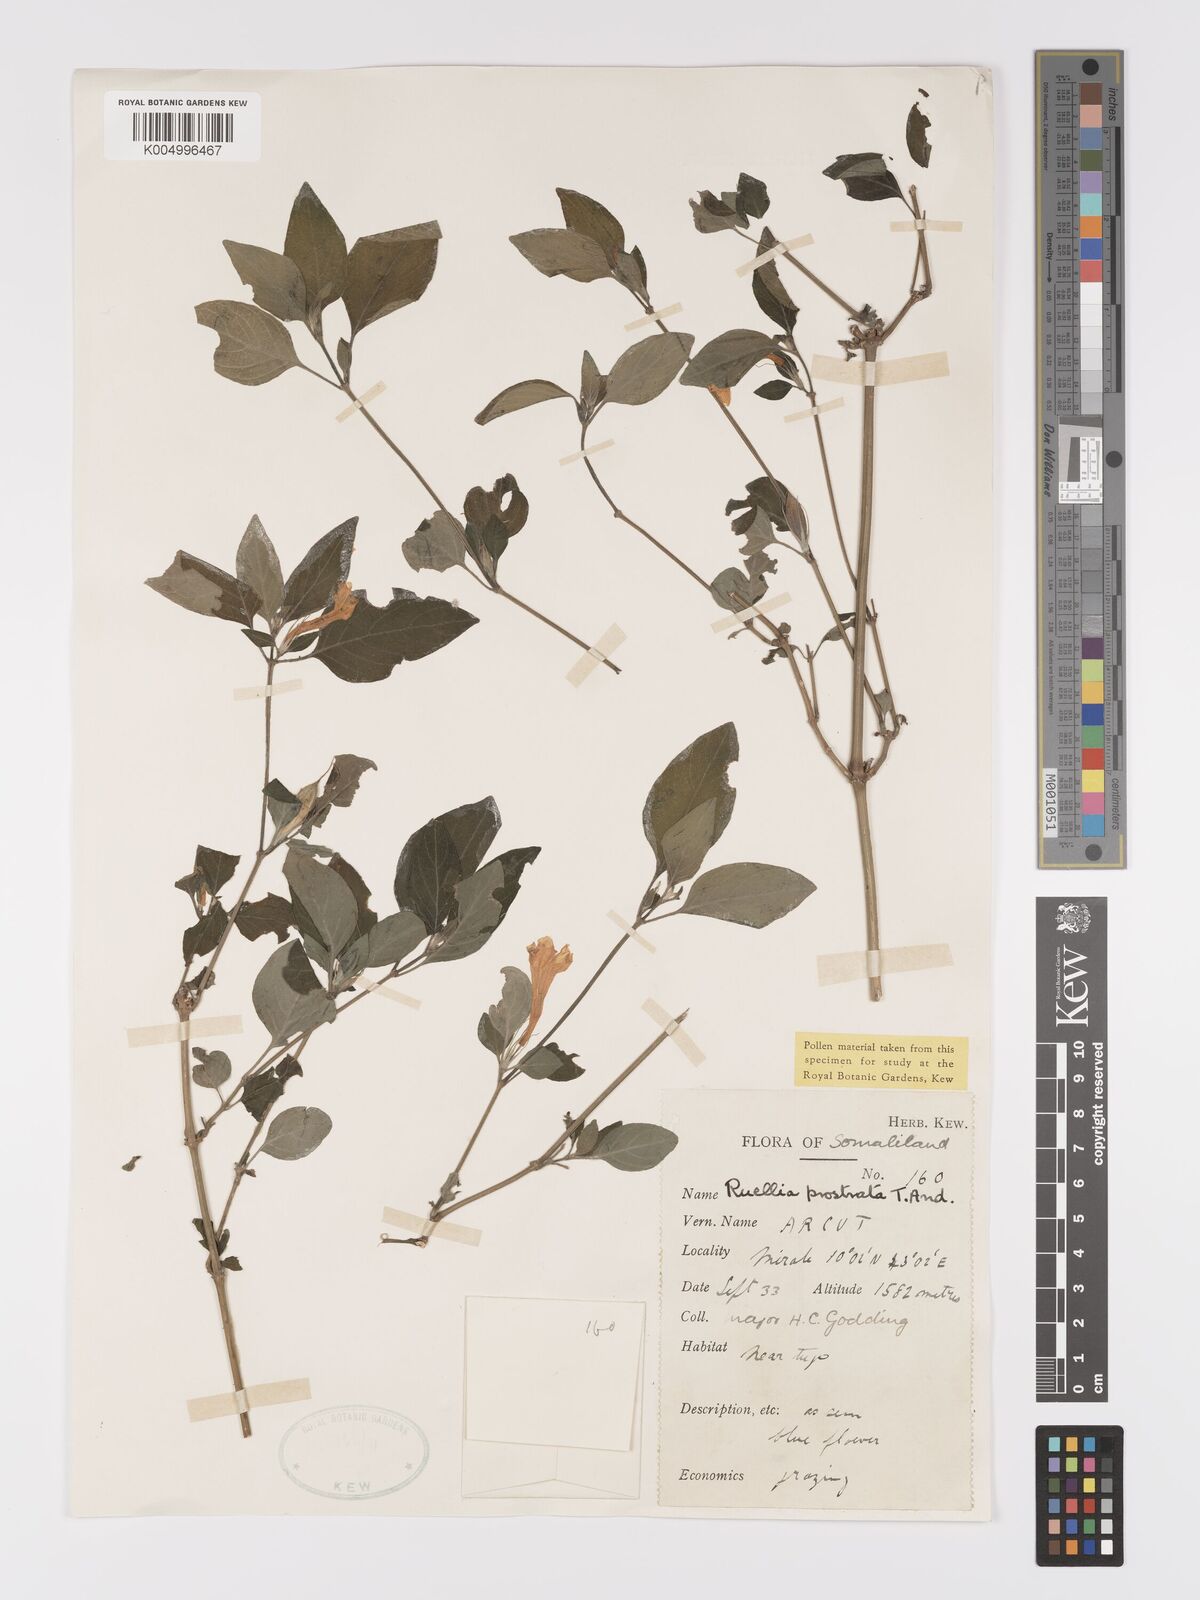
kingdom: Plantae
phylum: Tracheophyta
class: Magnoliopsida
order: Lamiales
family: Acanthaceae
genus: Ruellia
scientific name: Ruellia
